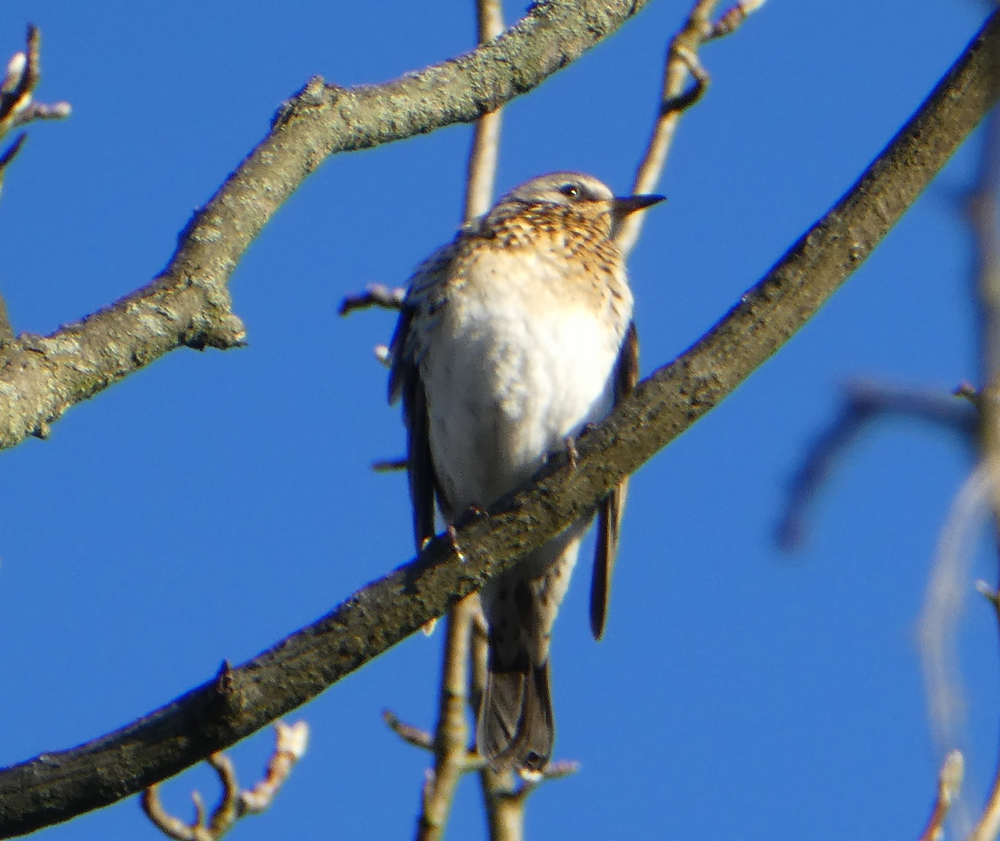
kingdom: Animalia
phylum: Chordata
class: Aves
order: Passeriformes
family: Turdidae
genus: Turdus
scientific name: Turdus pilaris
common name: Fieldfare
